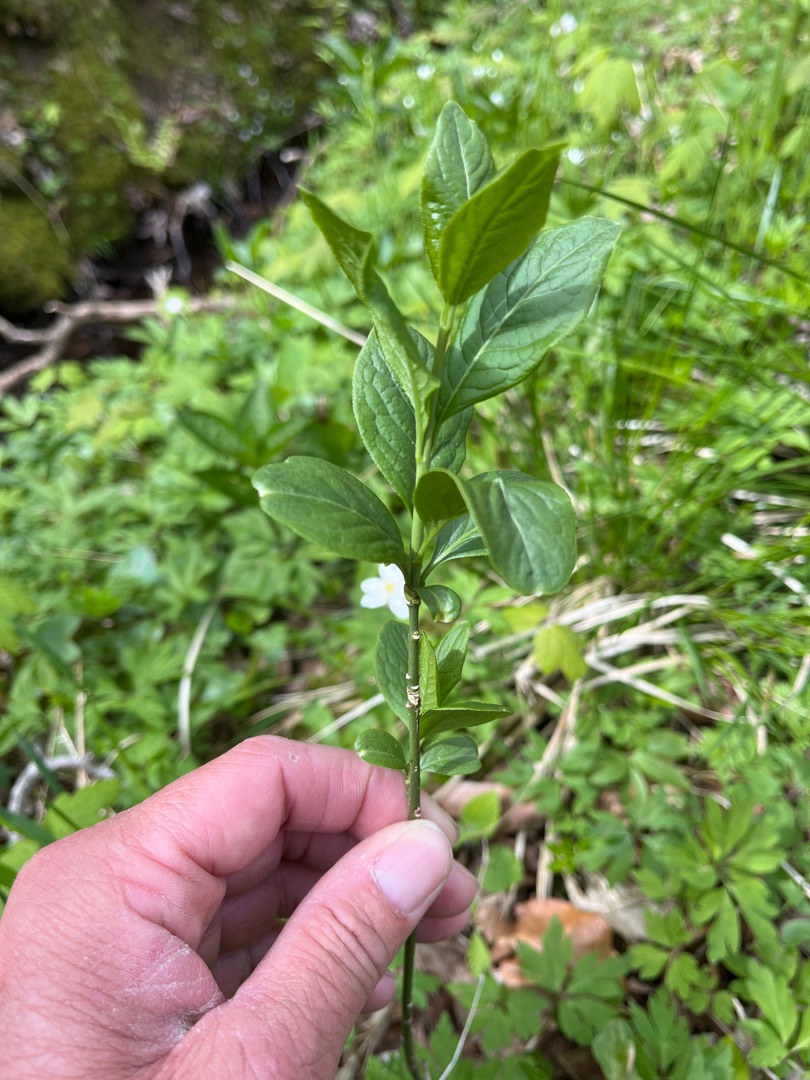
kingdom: Plantae
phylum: Tracheophyta
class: Magnoliopsida
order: Celastrales
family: Celastraceae
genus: Euonymus
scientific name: Euonymus europaeus
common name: Benved
